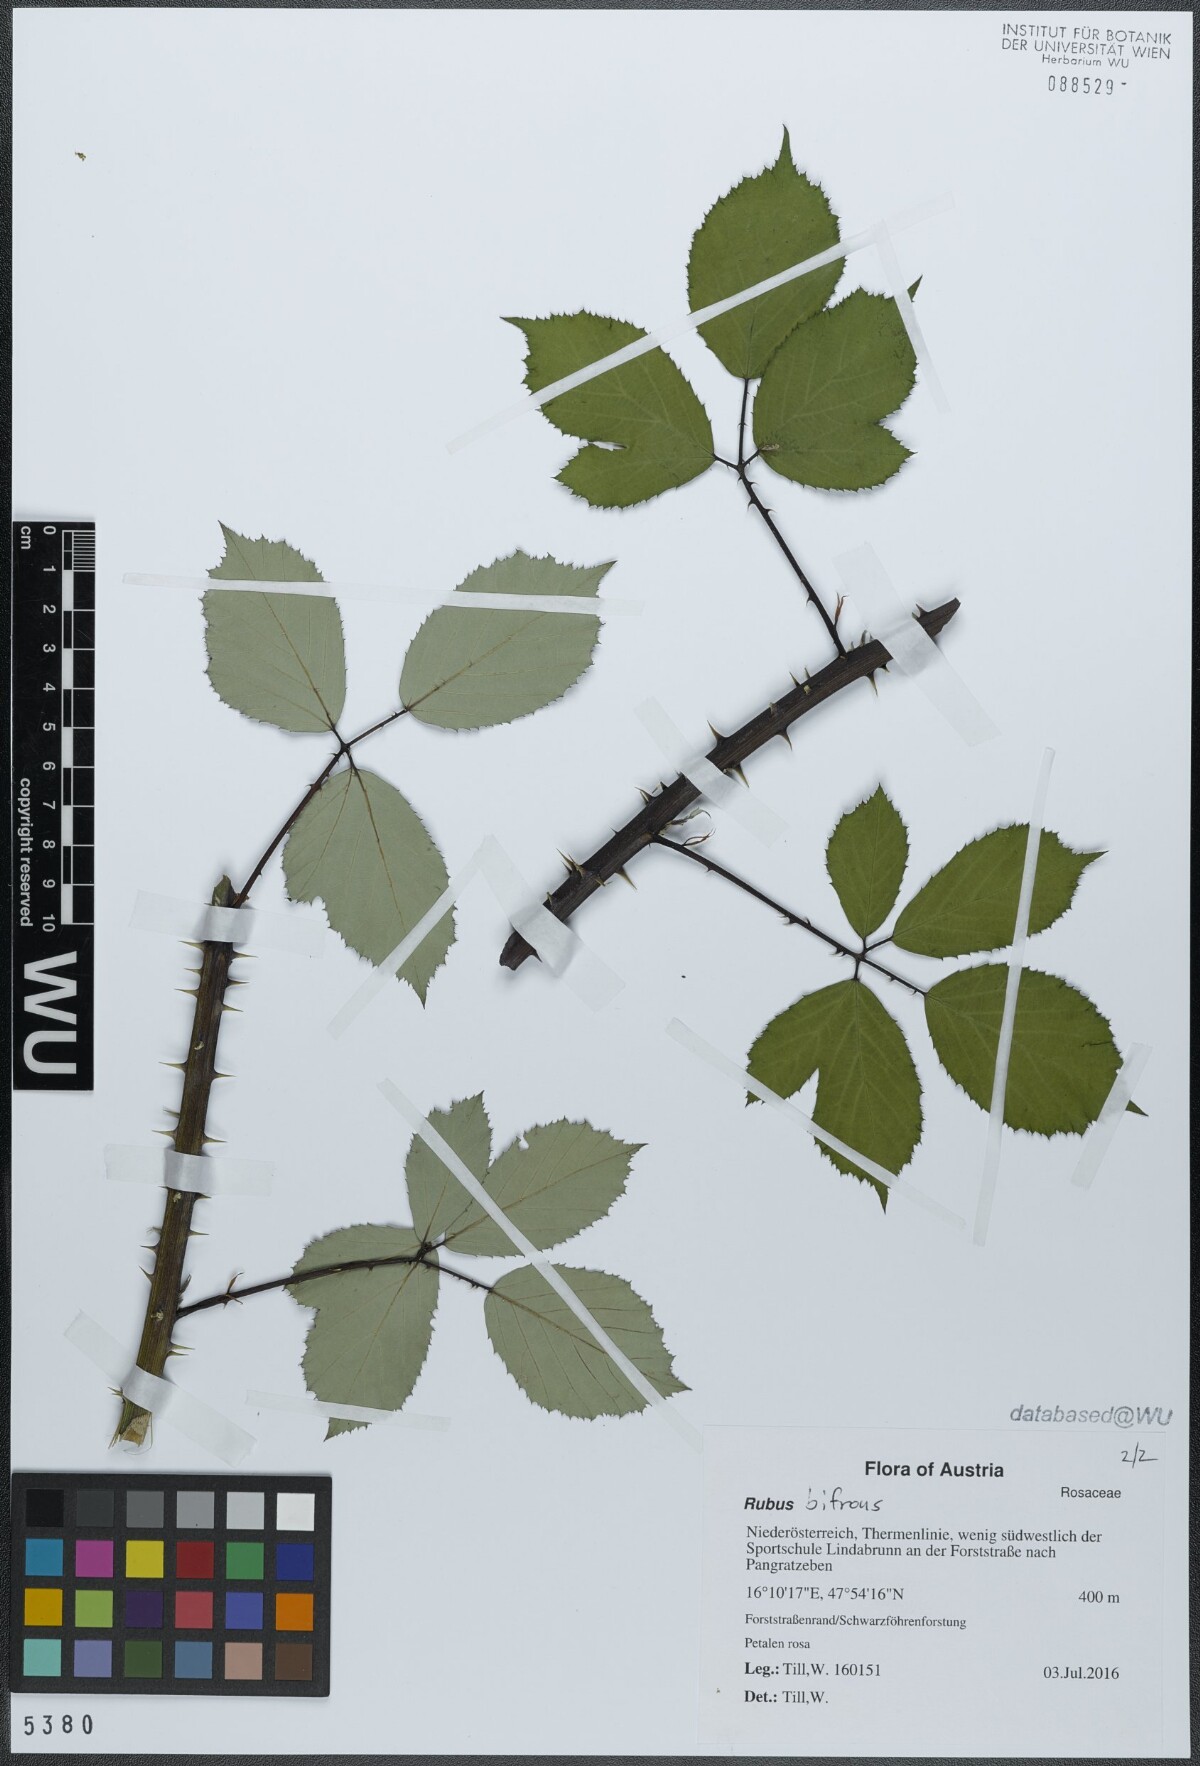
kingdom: Plantae
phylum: Tracheophyta
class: Magnoliopsida
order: Rosales
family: Rosaceae
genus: Rubus
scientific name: Rubus bifrons
